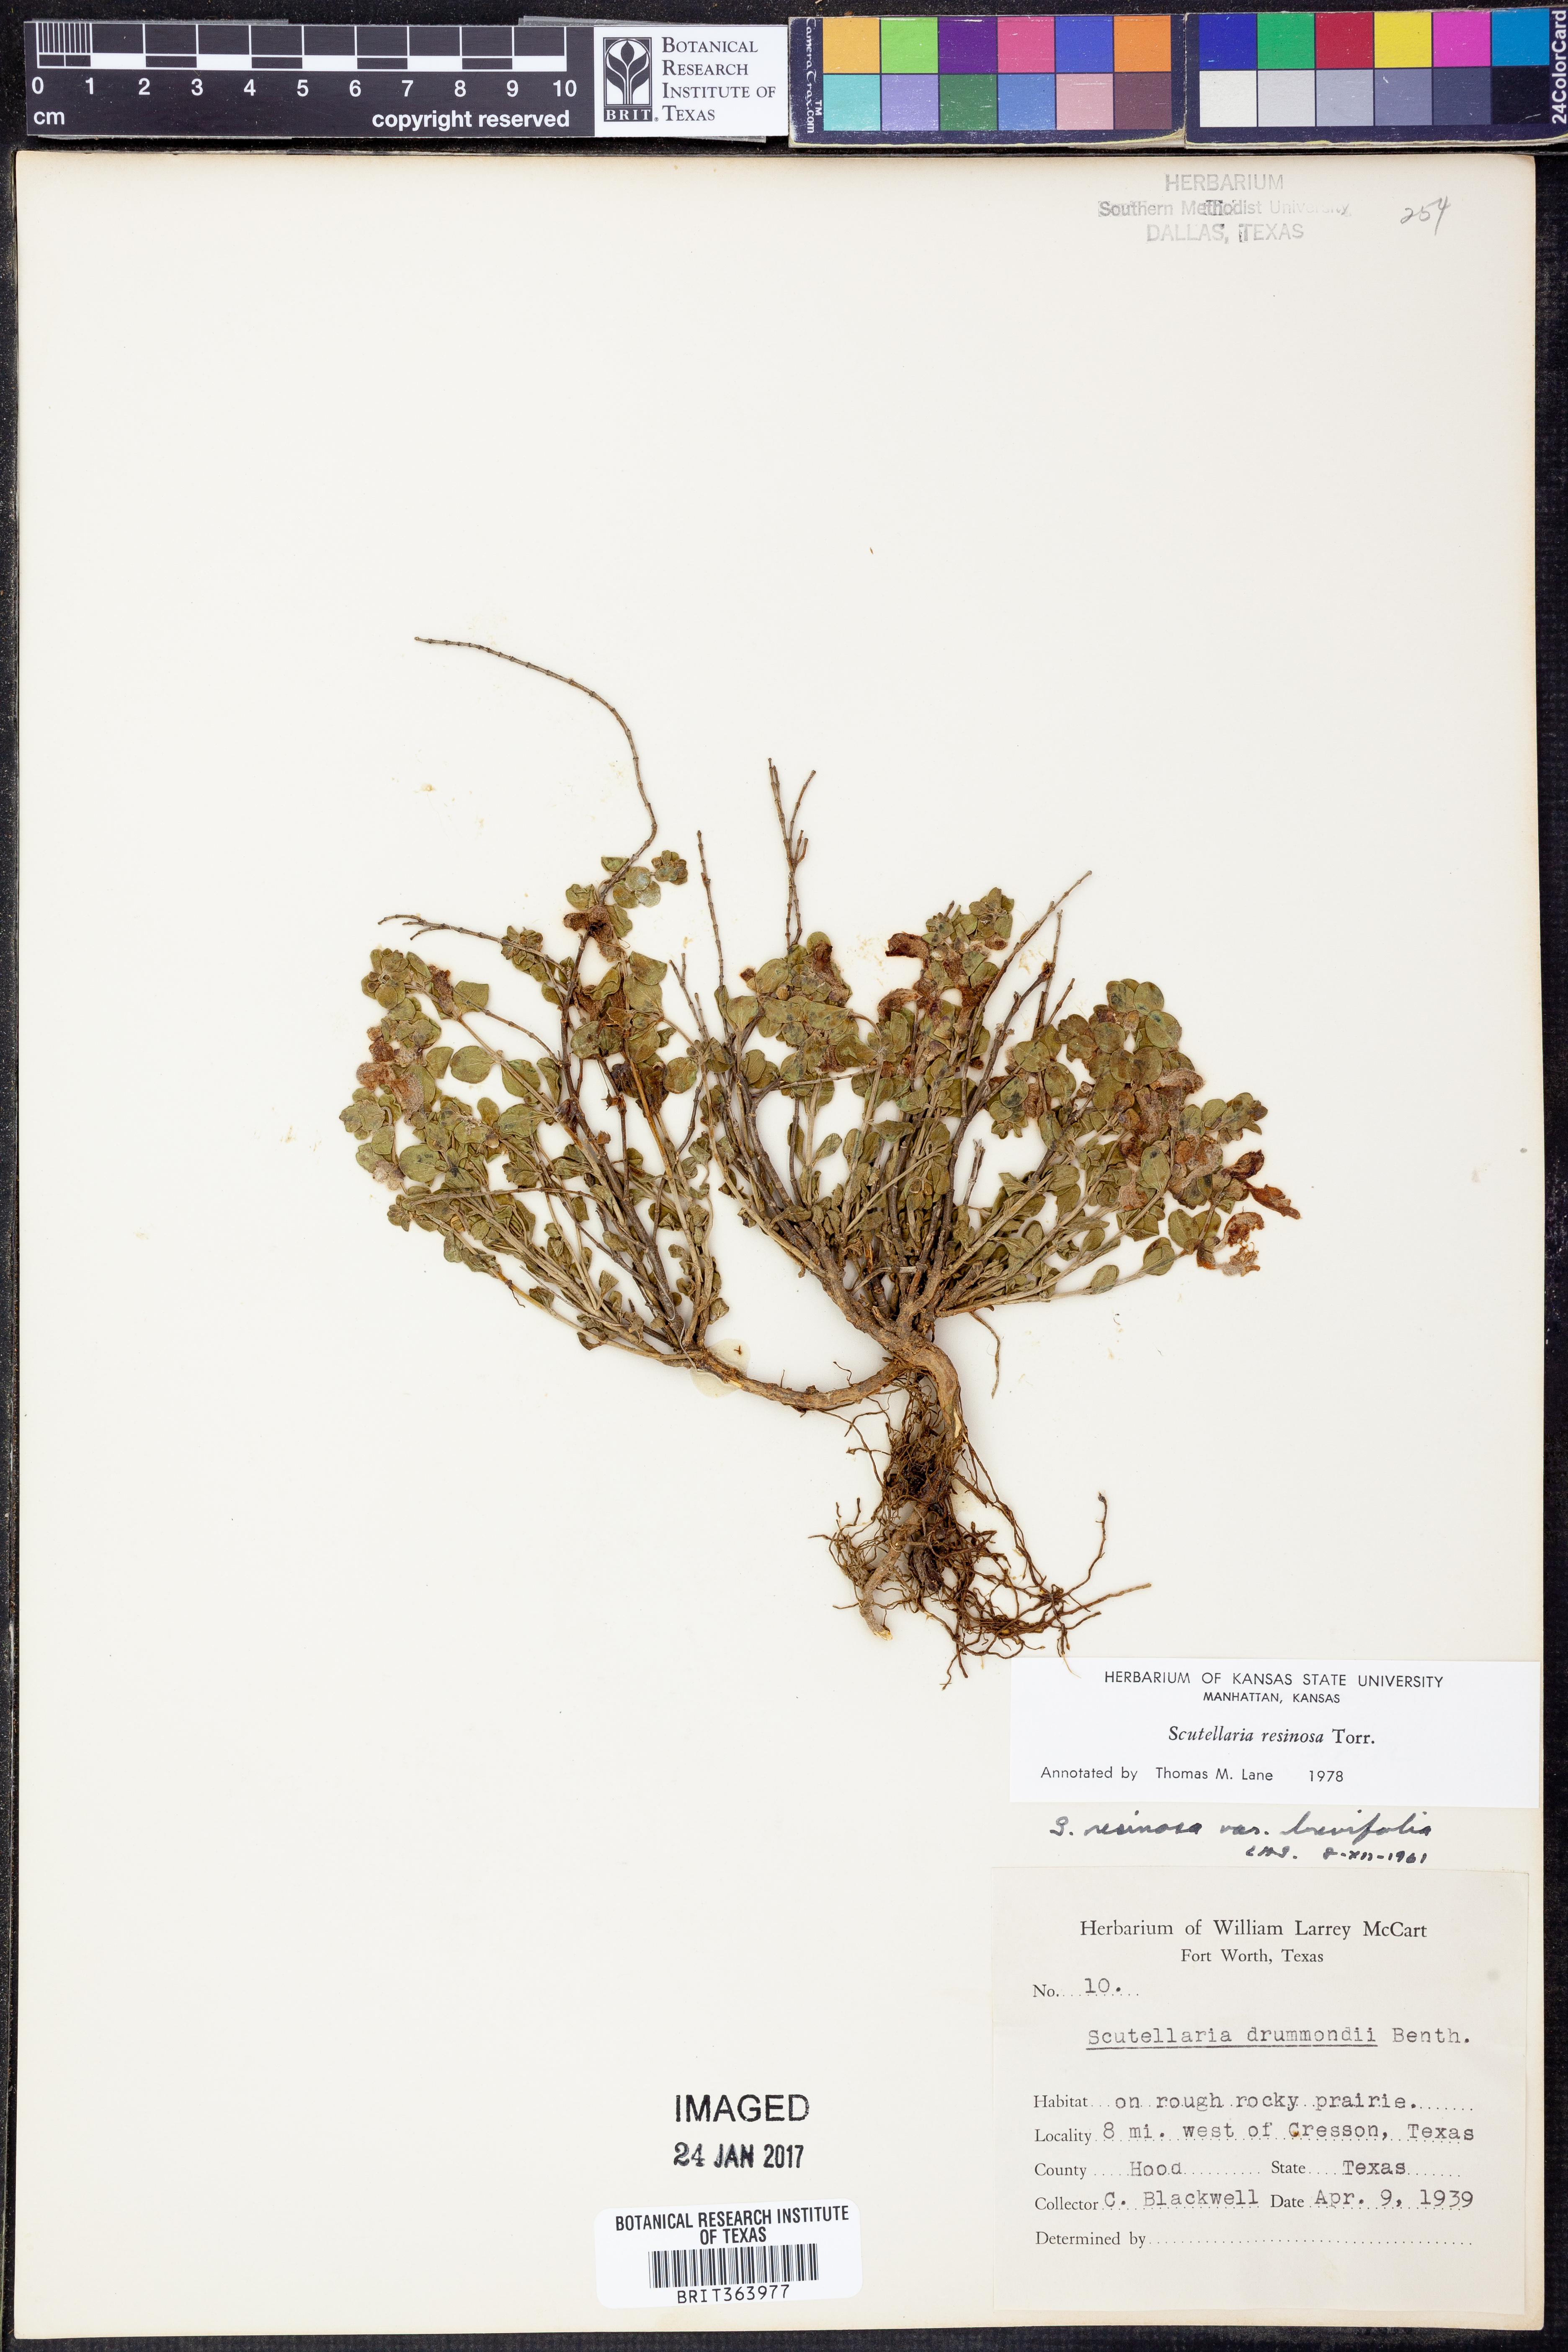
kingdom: Plantae
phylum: Tracheophyta
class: Magnoliopsida
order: Lamiales
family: Lamiaceae
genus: Scutellaria
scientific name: Scutellaria resinosa
